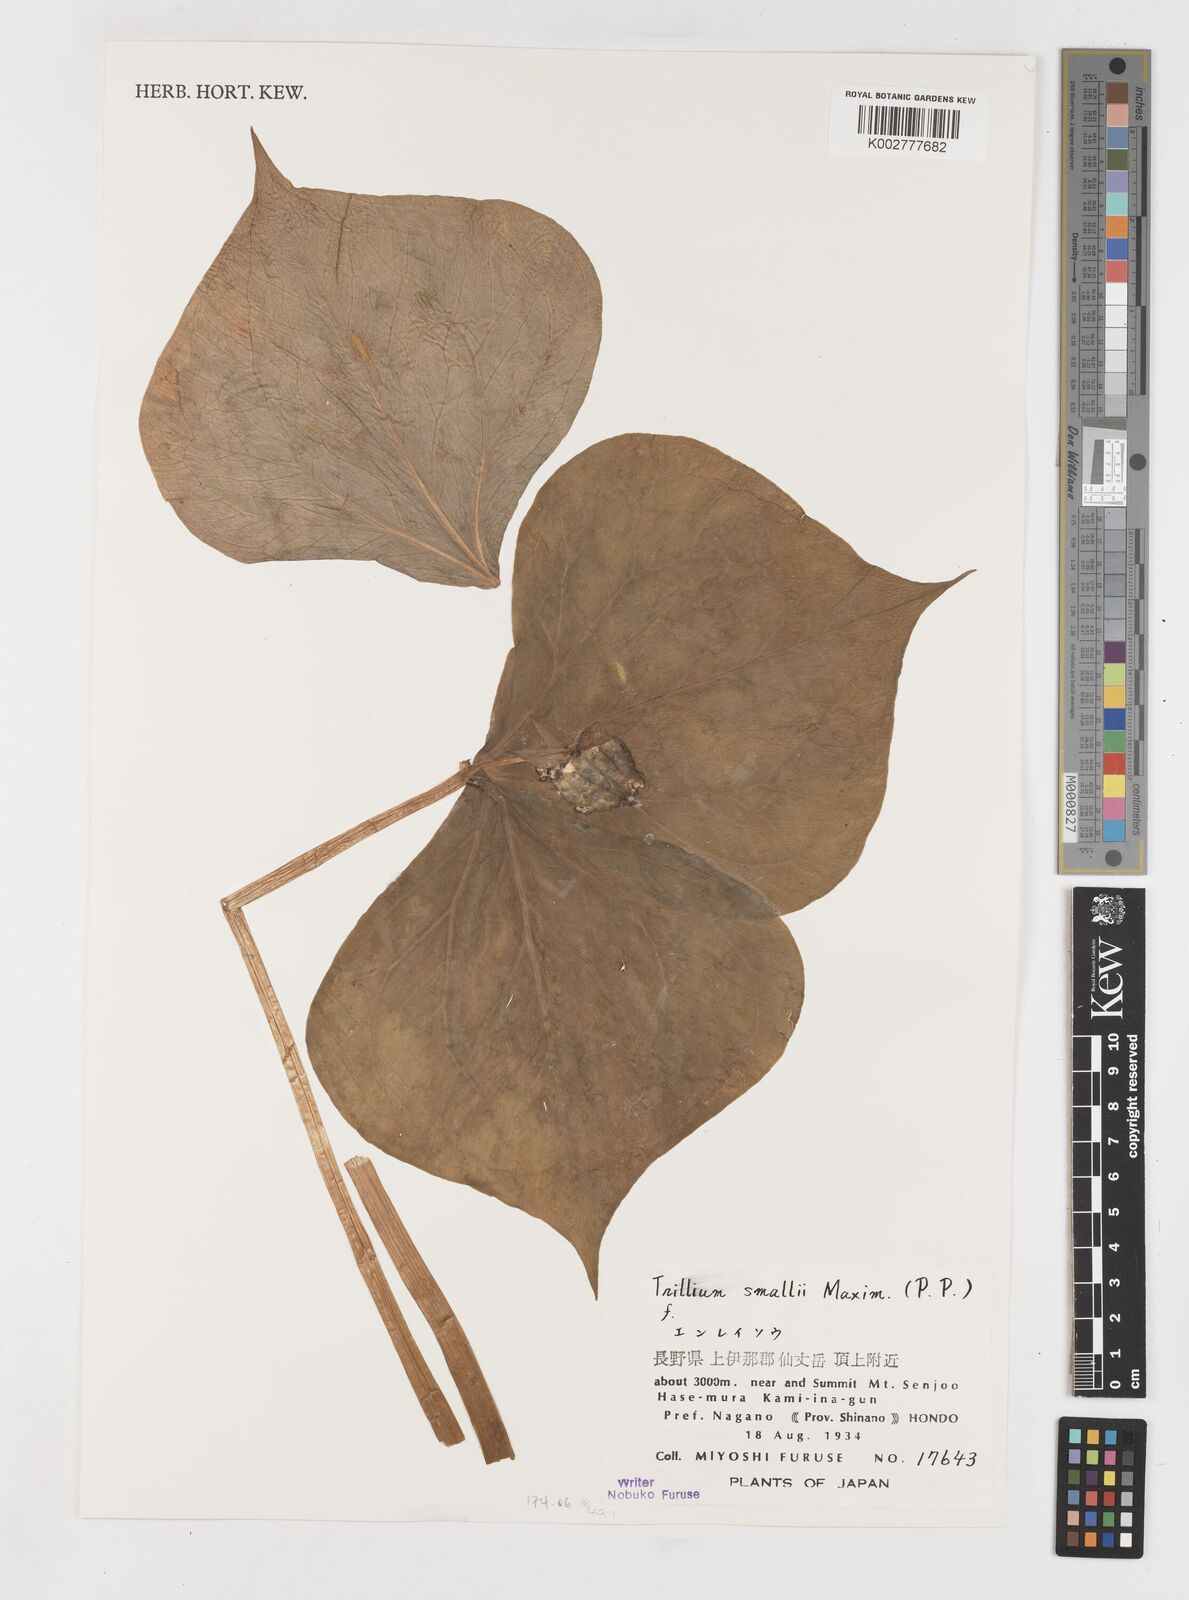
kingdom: Plantae
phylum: Tracheophyta
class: Liliopsida
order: Liliales
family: Melanthiaceae
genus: Trillium
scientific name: Trillium smallii
